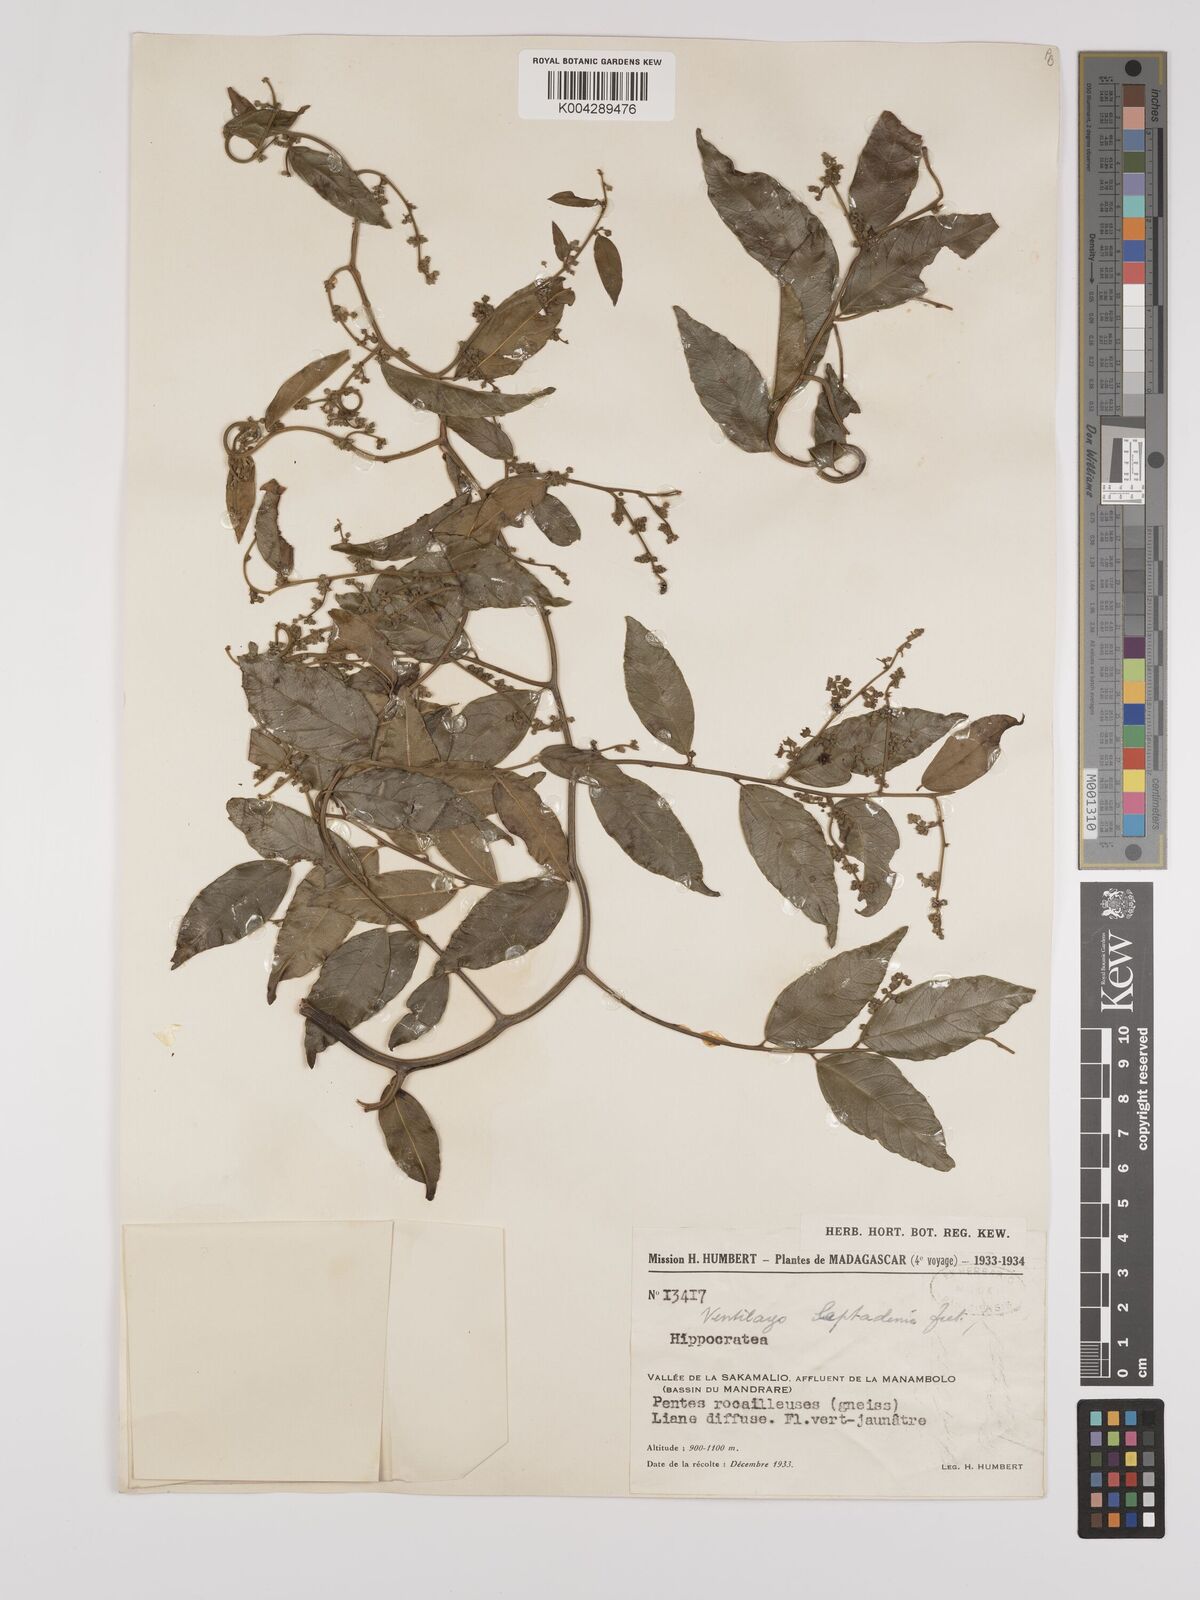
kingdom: Plantae
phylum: Tracheophyta
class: Magnoliopsida
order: Rosales
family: Rhamnaceae
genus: Ventilago
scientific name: Ventilago leptadenia
